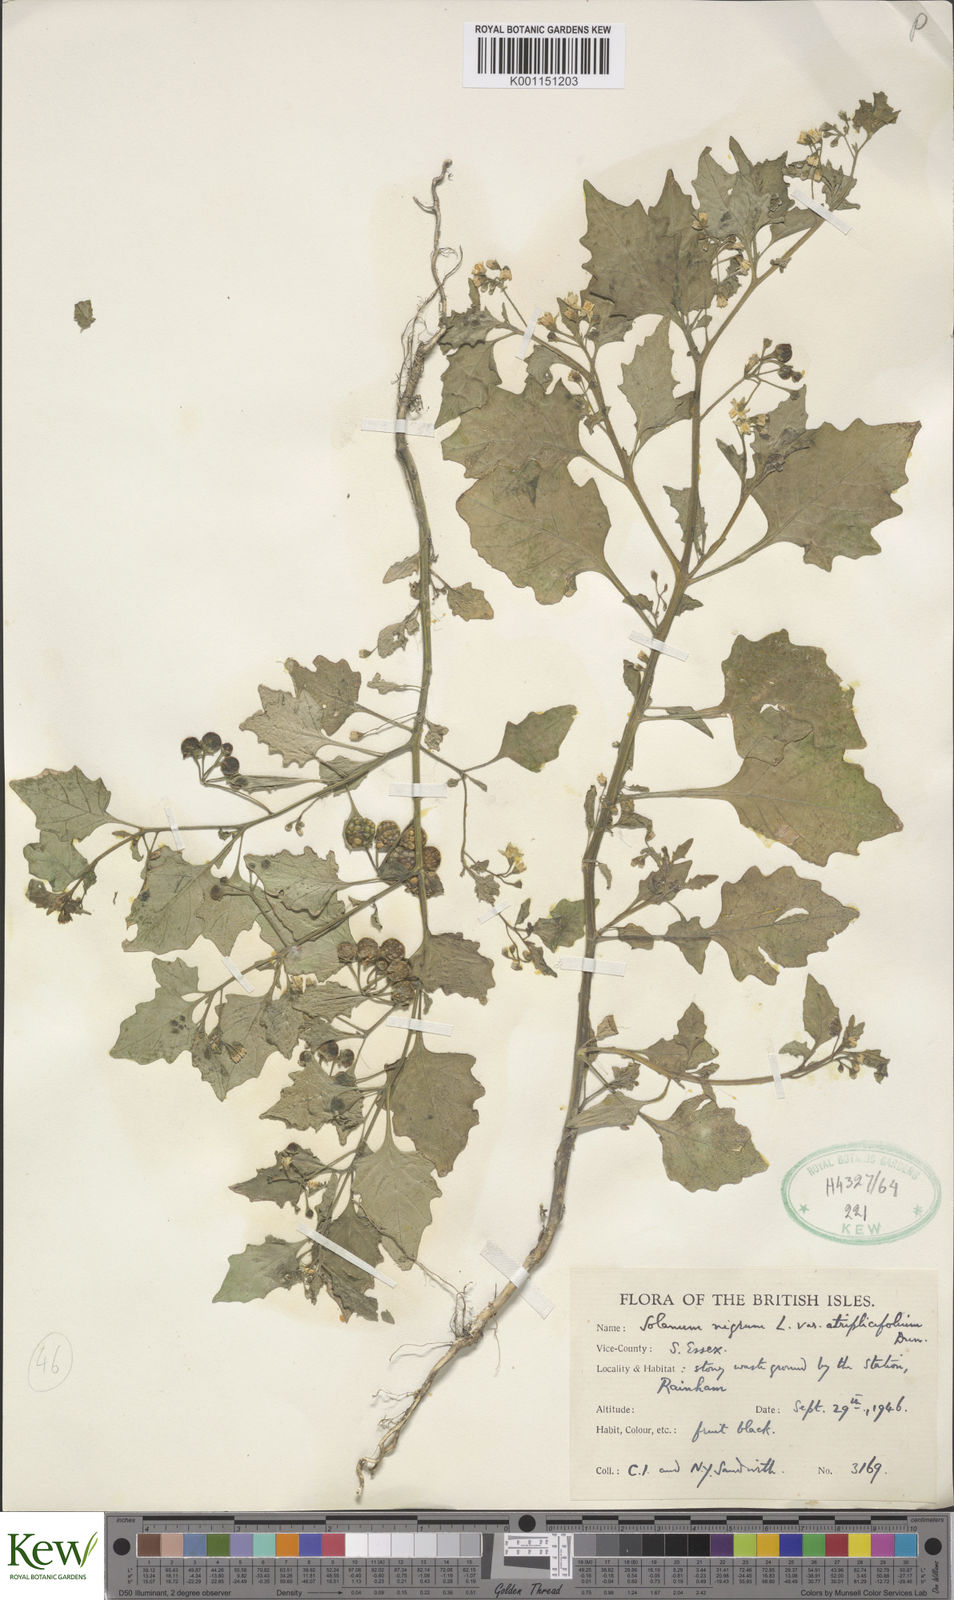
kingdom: Plantae
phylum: Tracheophyta
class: Magnoliopsida
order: Solanales
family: Solanaceae
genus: Solanum
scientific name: Solanum nigrum
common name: Black nightshade
